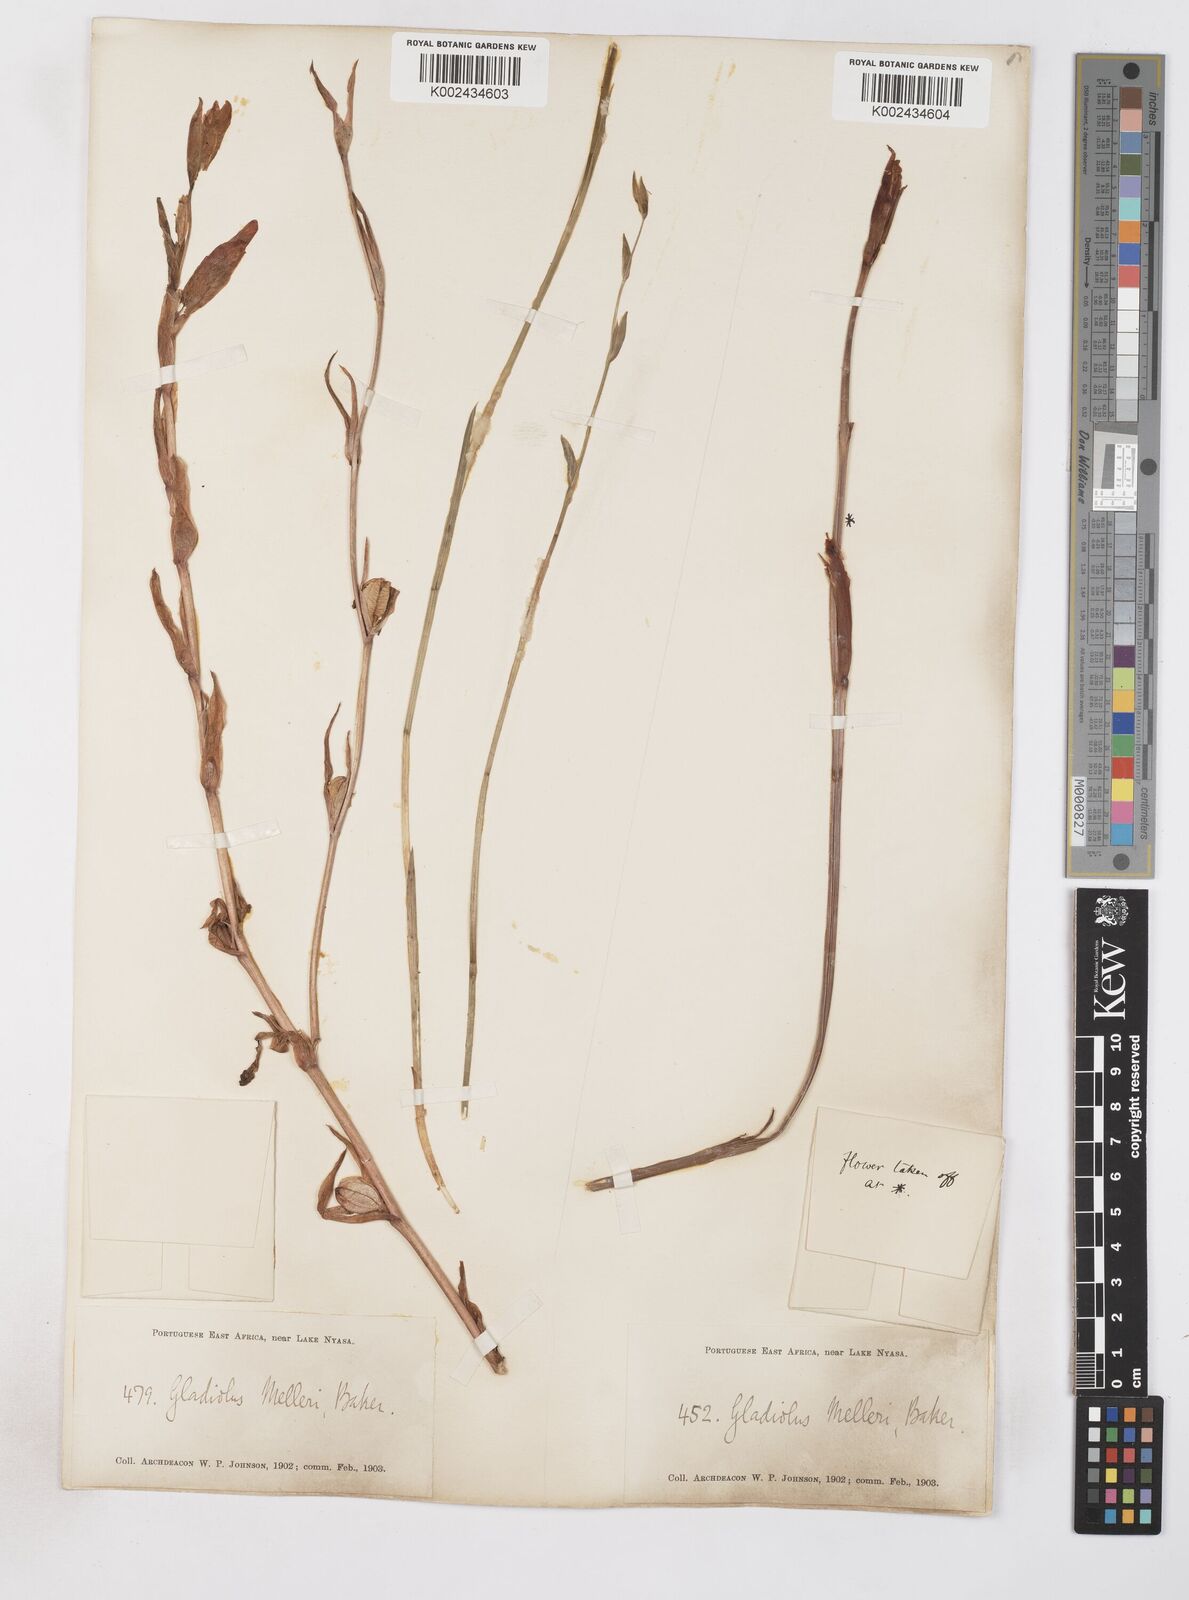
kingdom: Plantae
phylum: Tracheophyta
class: Liliopsida
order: Asparagales
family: Iridaceae
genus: Gladiolus
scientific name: Gladiolus melleri
